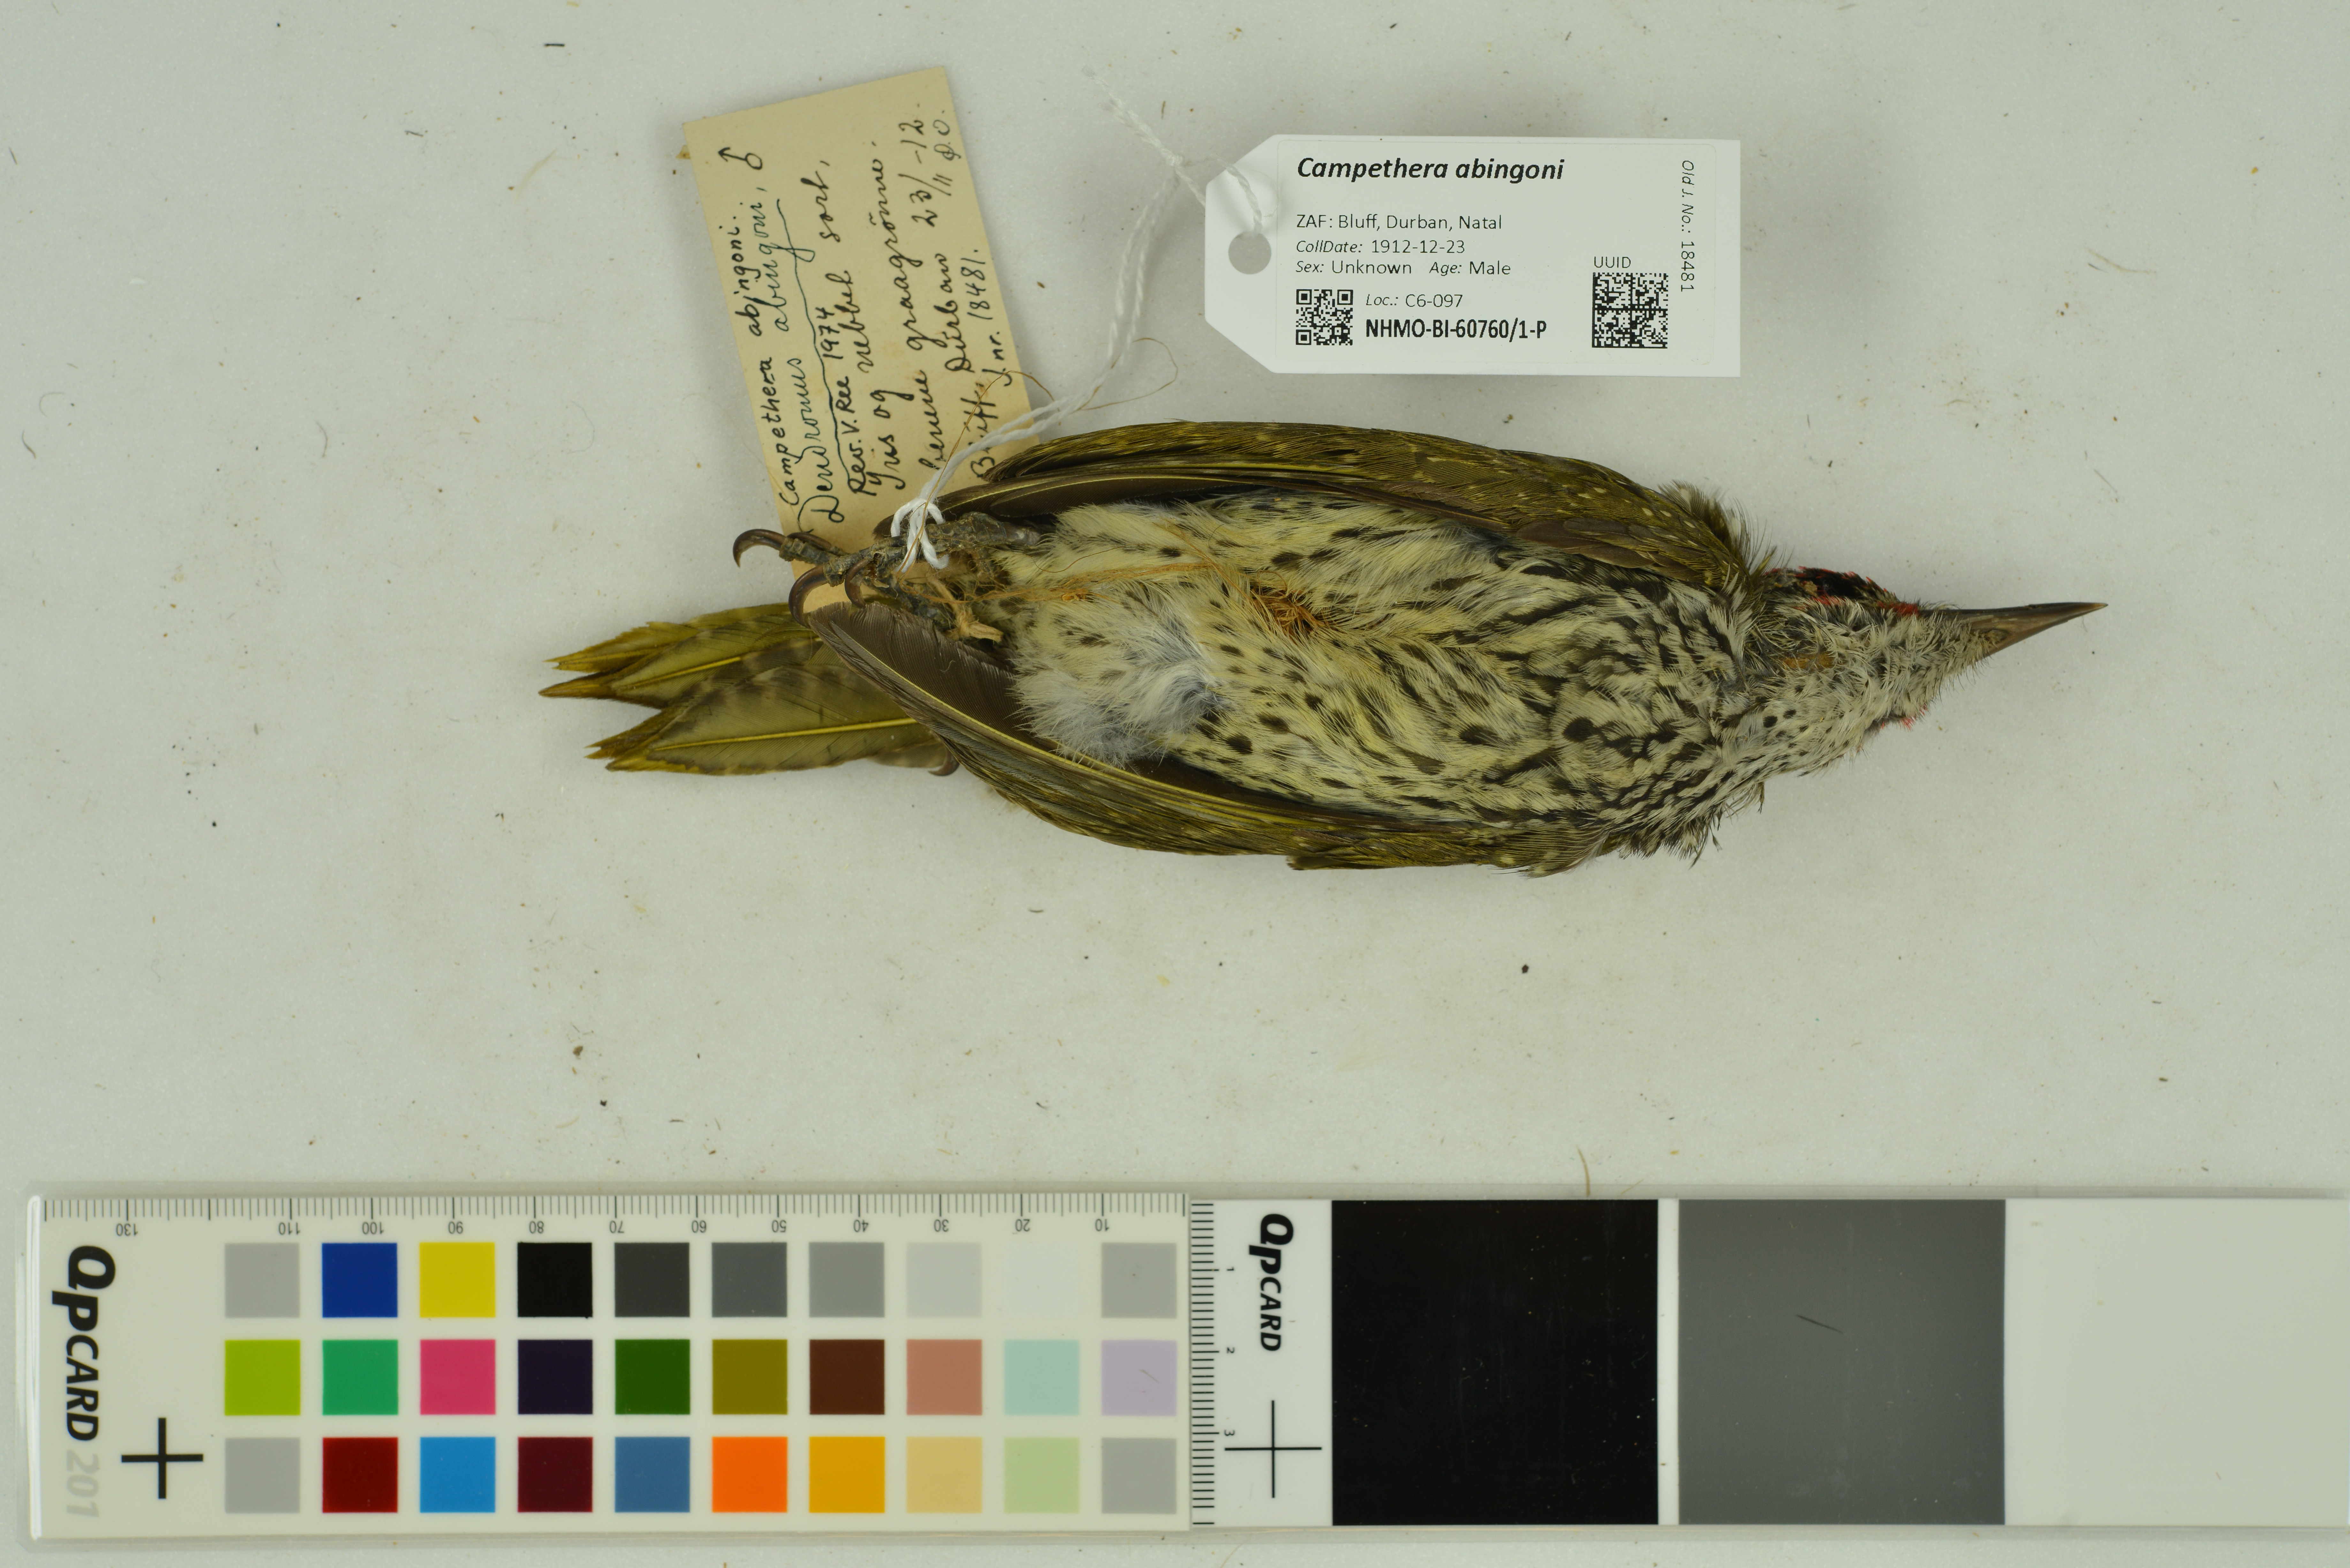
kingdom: Animalia
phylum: Chordata
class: Aves
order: Piciformes
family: Picidae
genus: Campethera
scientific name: Campethera abingoni
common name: Golden-tailed woodpecker
